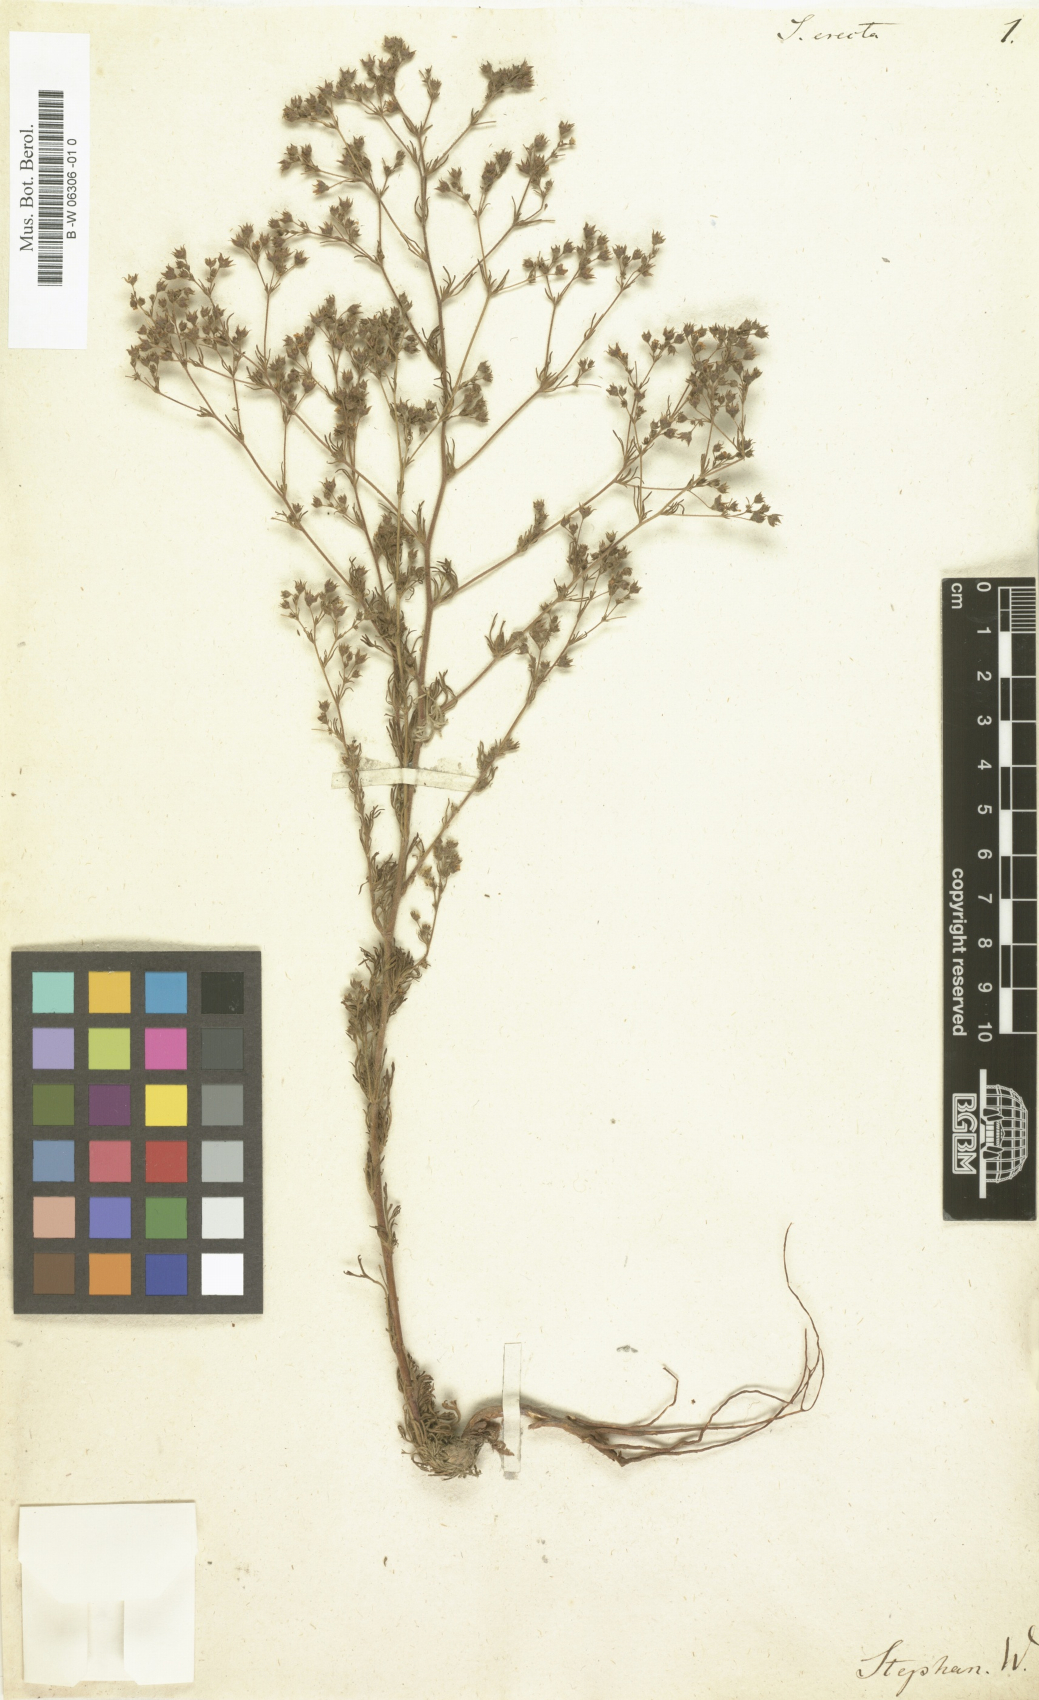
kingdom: Plantae
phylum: Tracheophyta
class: Magnoliopsida
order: Rosales
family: Rosaceae
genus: Chamaerhodos
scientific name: Chamaerhodos erecta
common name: American chamaerhodos
